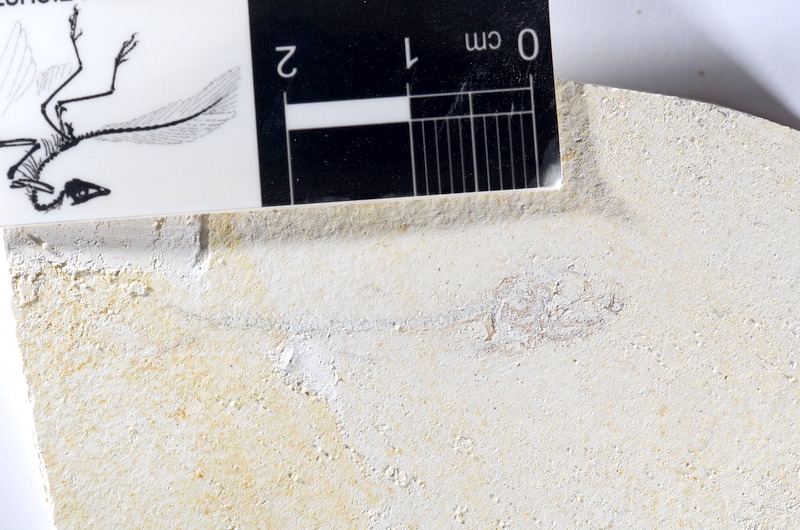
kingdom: Animalia
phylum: Chordata
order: Salmoniformes
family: Orthogonikleithridae
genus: Orthogonikleithrus
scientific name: Orthogonikleithrus hoelli
